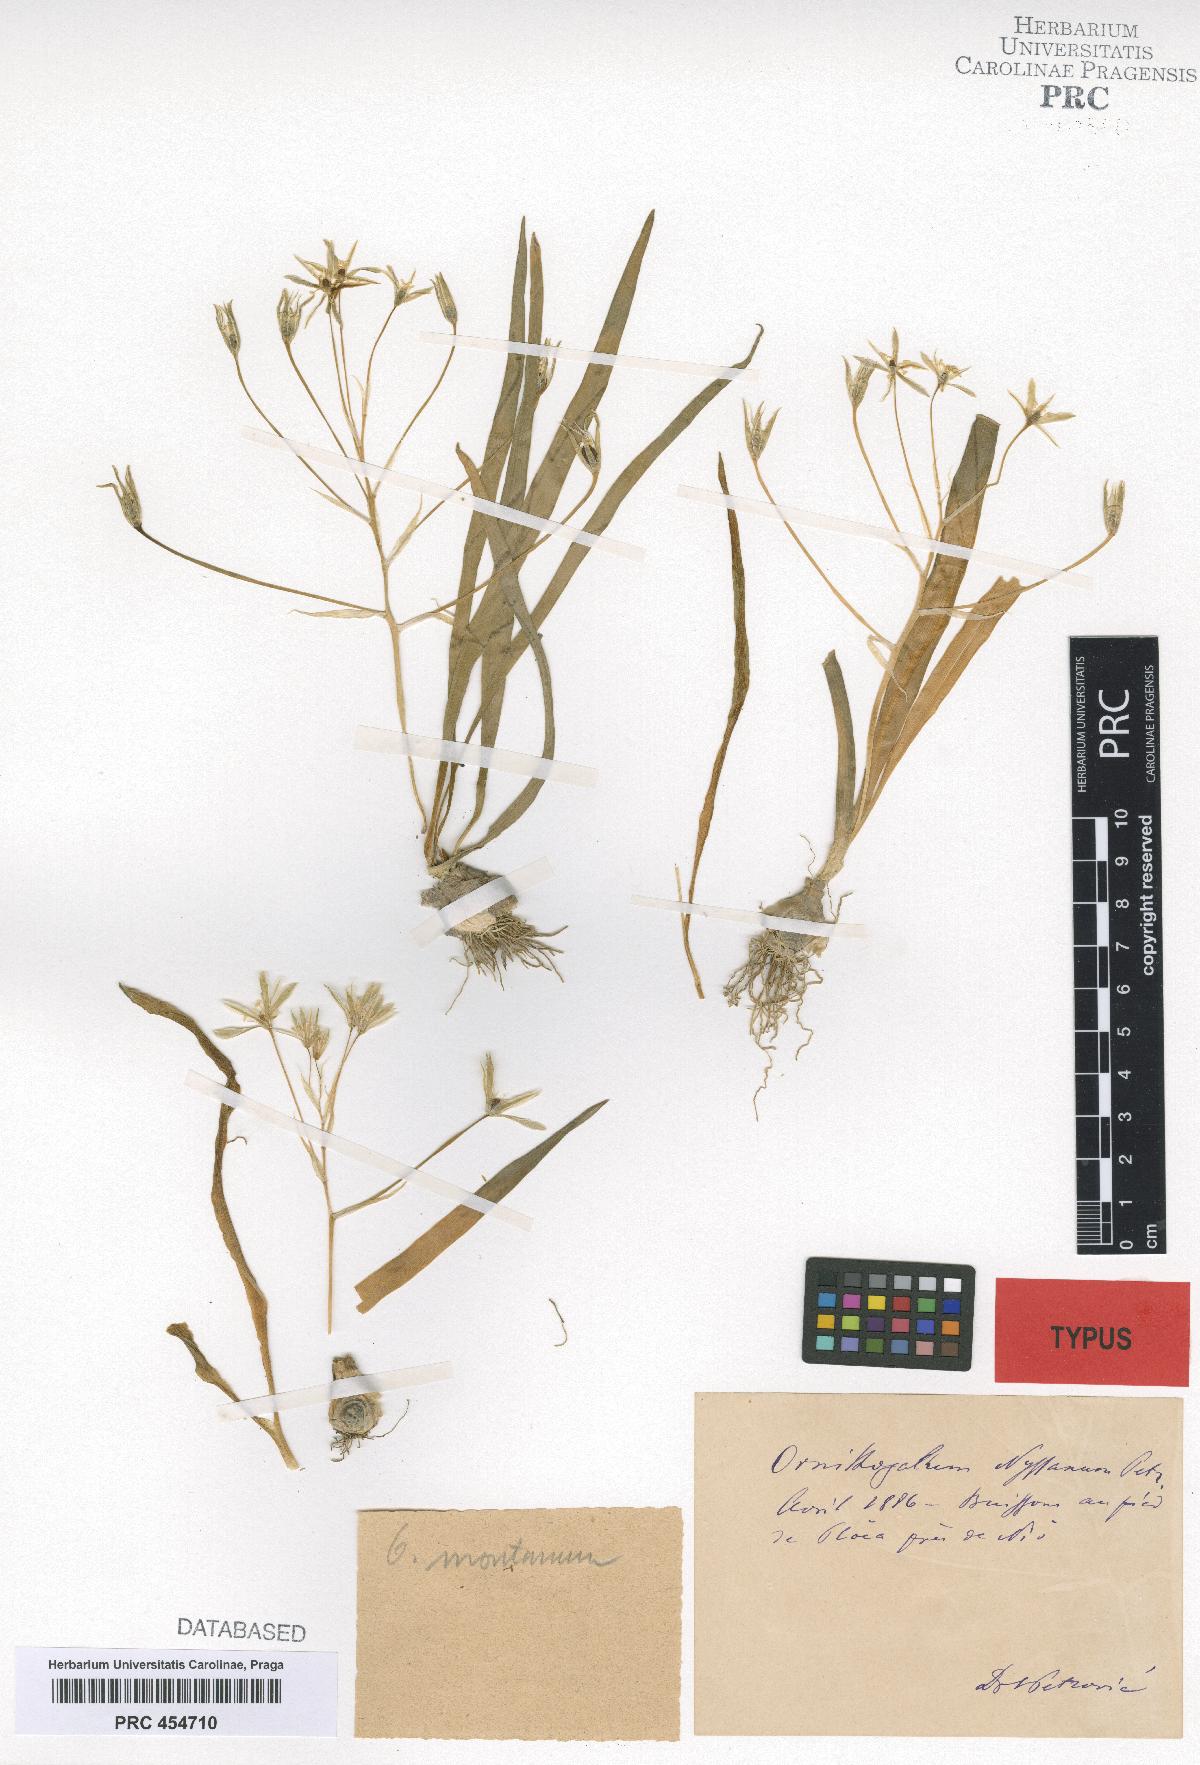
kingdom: Plantae
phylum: Tracheophyta
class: Liliopsida
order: Asparagales
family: Asparagaceae
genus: Ornithogalum
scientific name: Ornithogalum montanum
